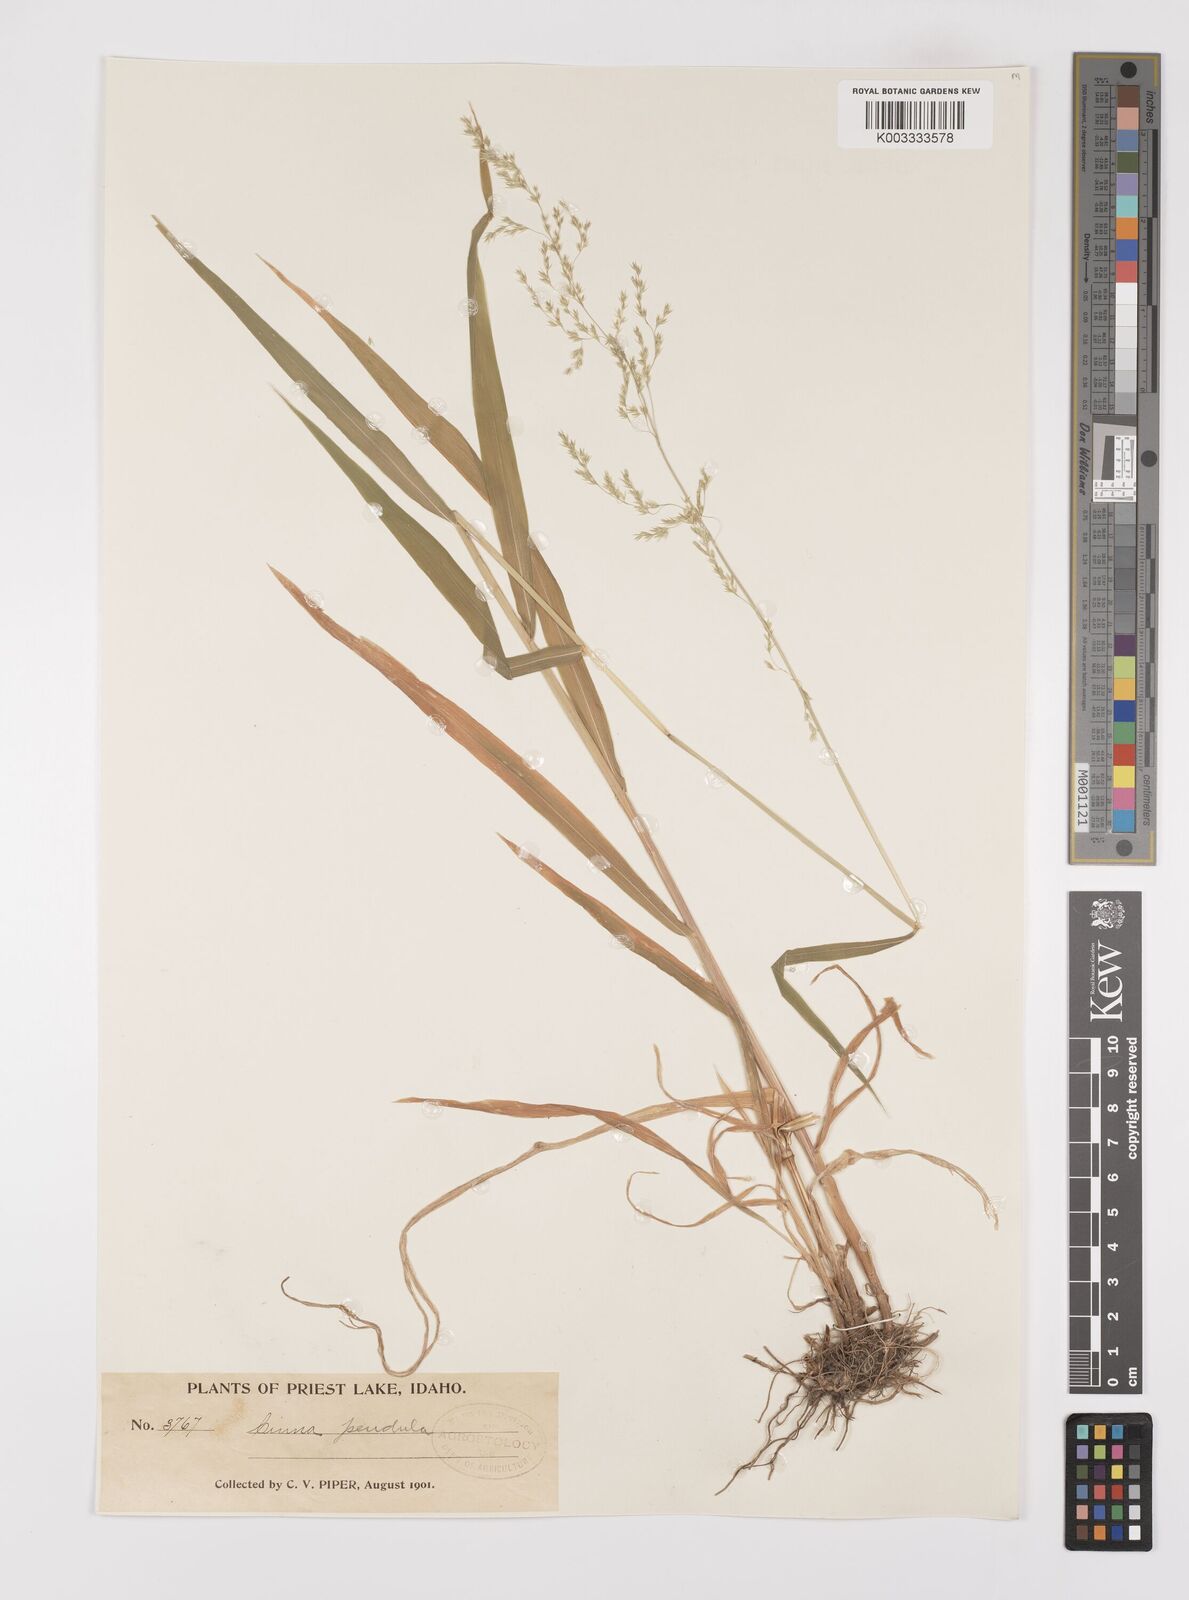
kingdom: Plantae
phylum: Tracheophyta
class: Liliopsida
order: Poales
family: Poaceae
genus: Cinna
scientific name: Cinna latifolia
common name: Drooping woodreed
